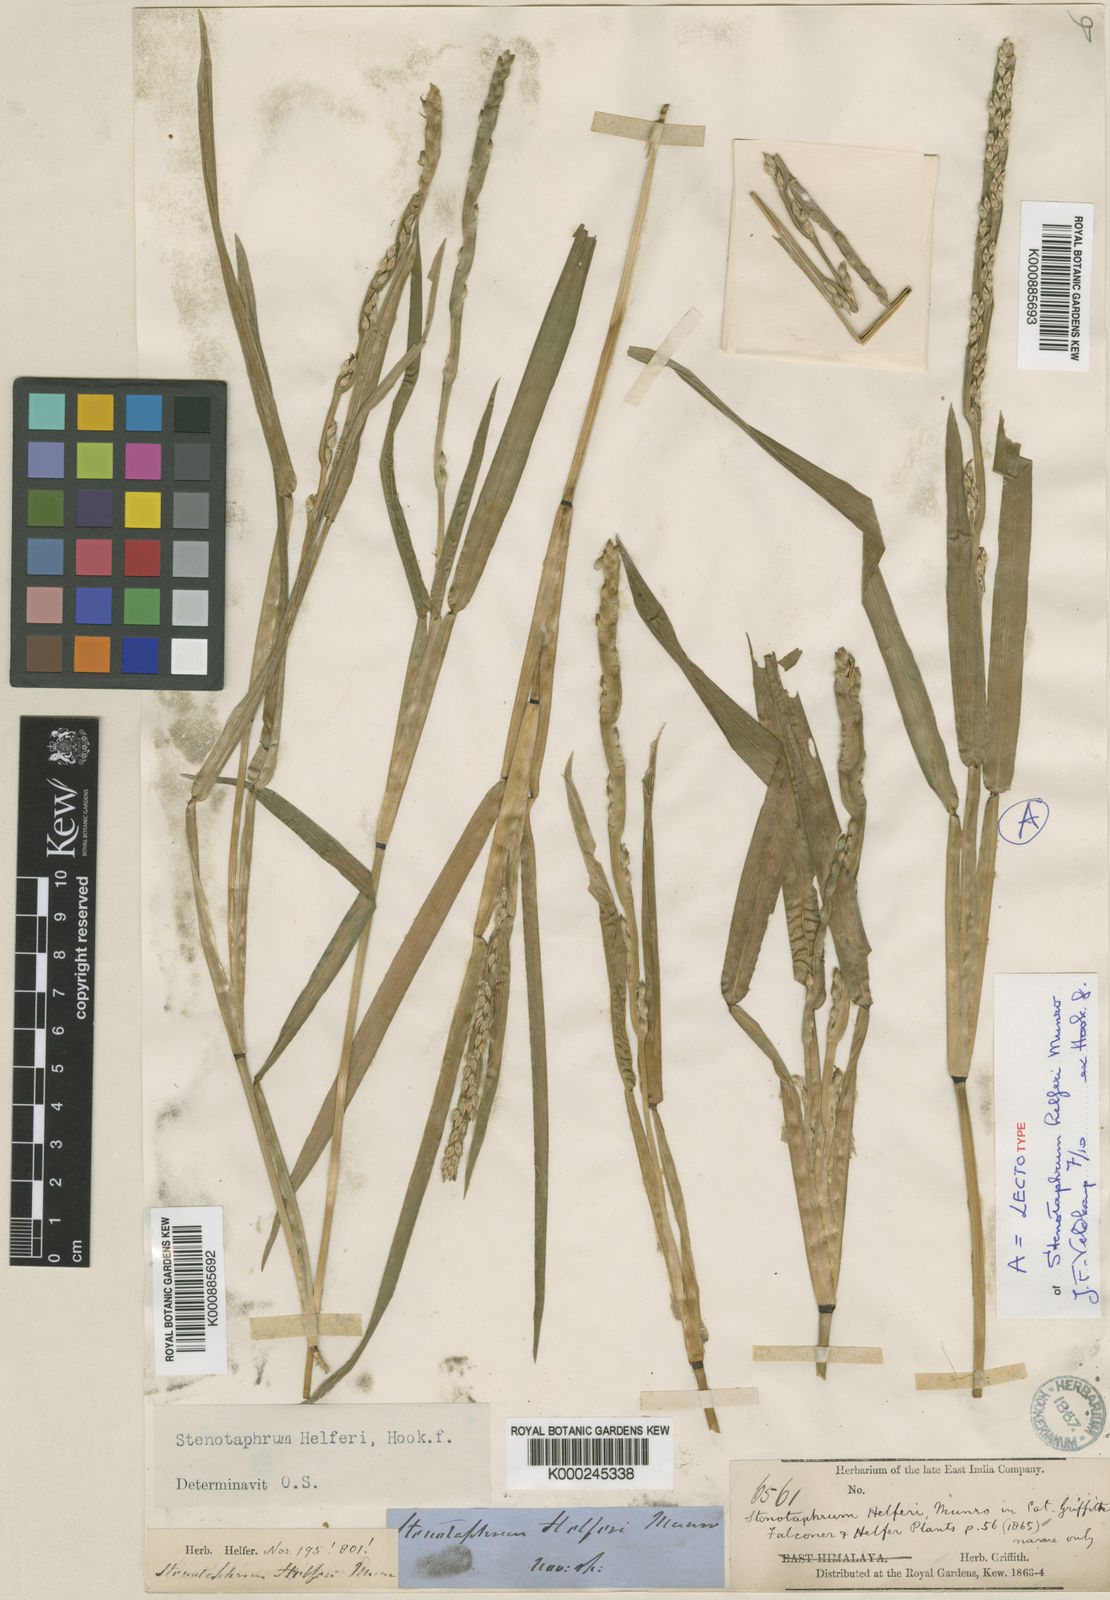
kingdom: Plantae
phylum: Tracheophyta
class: Liliopsida
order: Poales
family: Poaceae
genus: Stenotaphrum
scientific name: Stenotaphrum helferi
